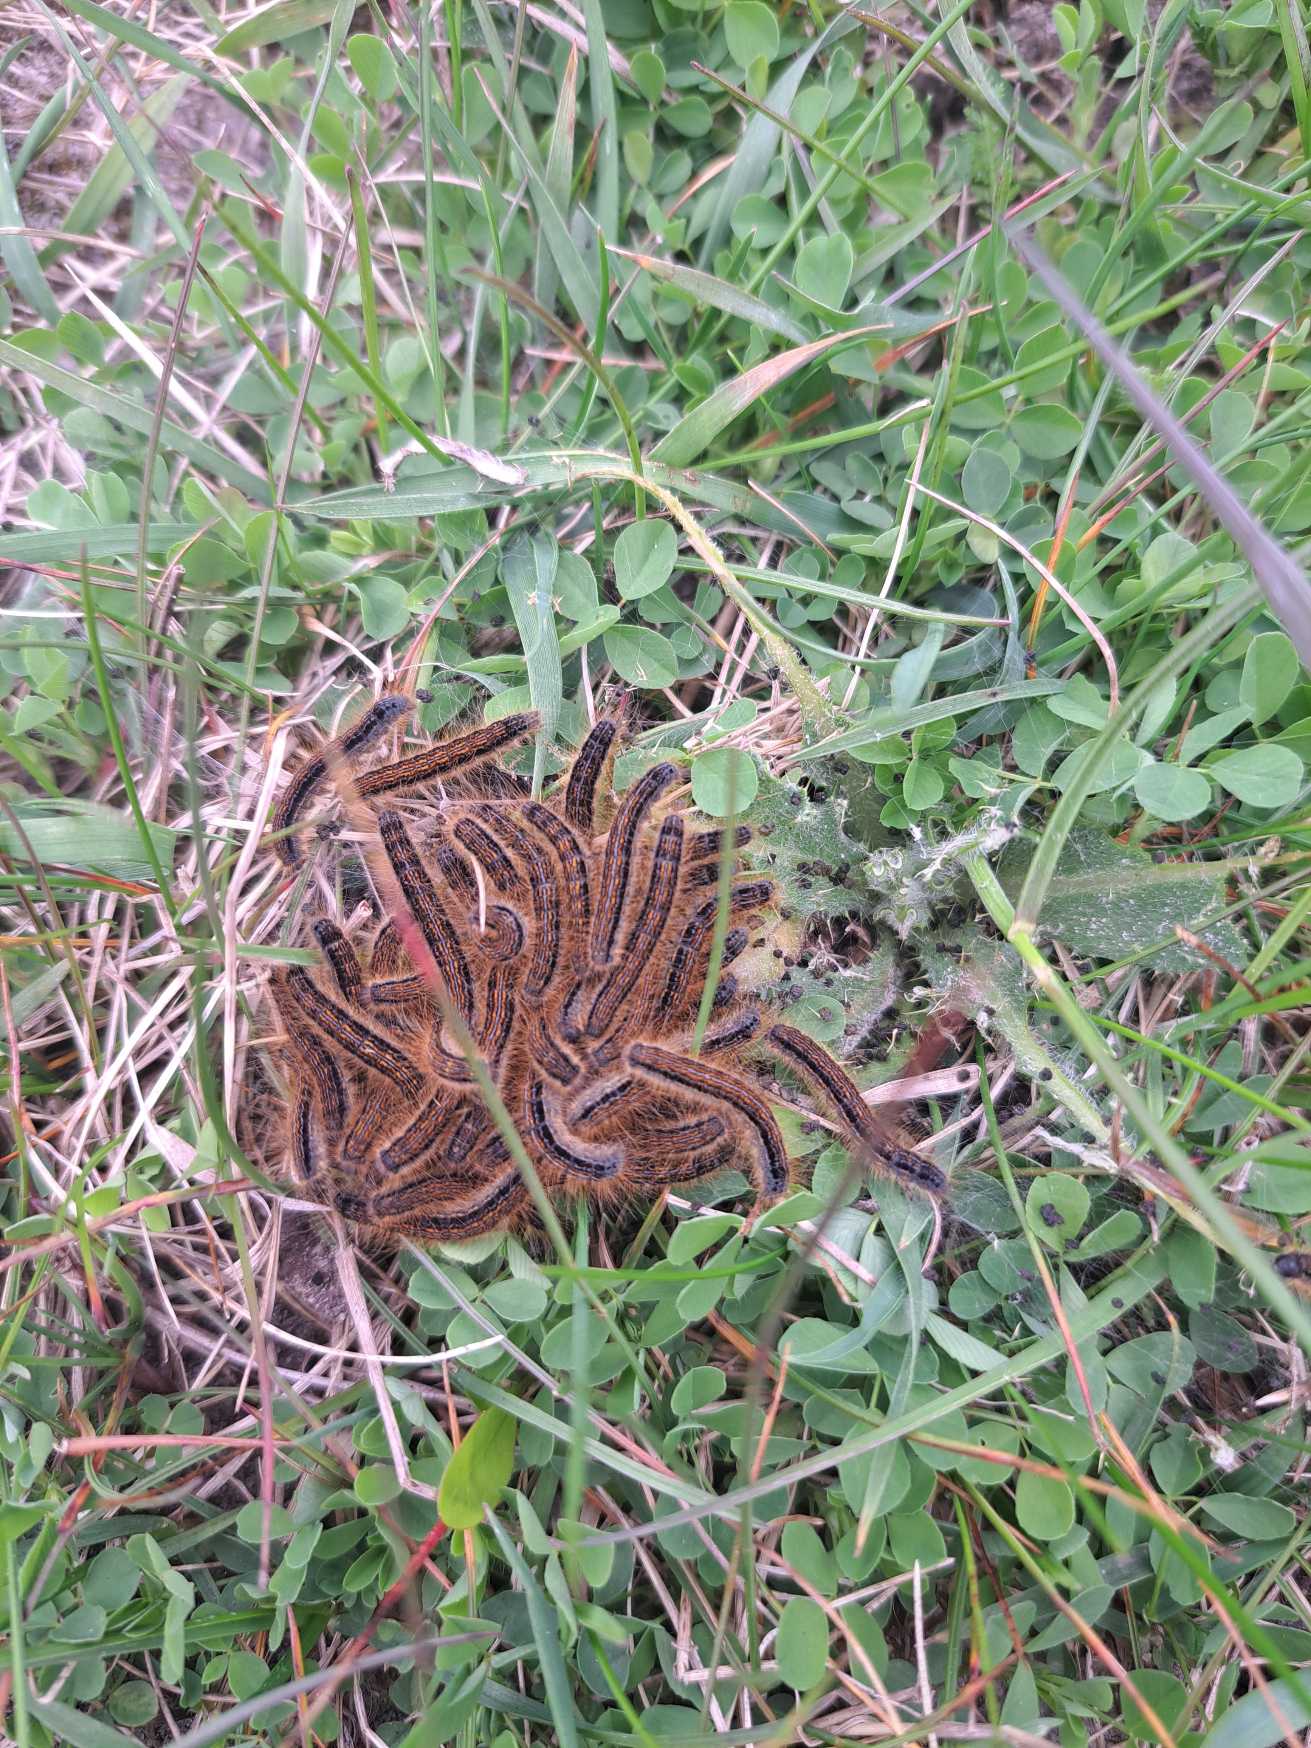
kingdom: Animalia
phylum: Arthropoda
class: Insecta
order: Lepidoptera
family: Lasiocampidae
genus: Malacosoma
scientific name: Malacosoma neustria
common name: Ringspinder
